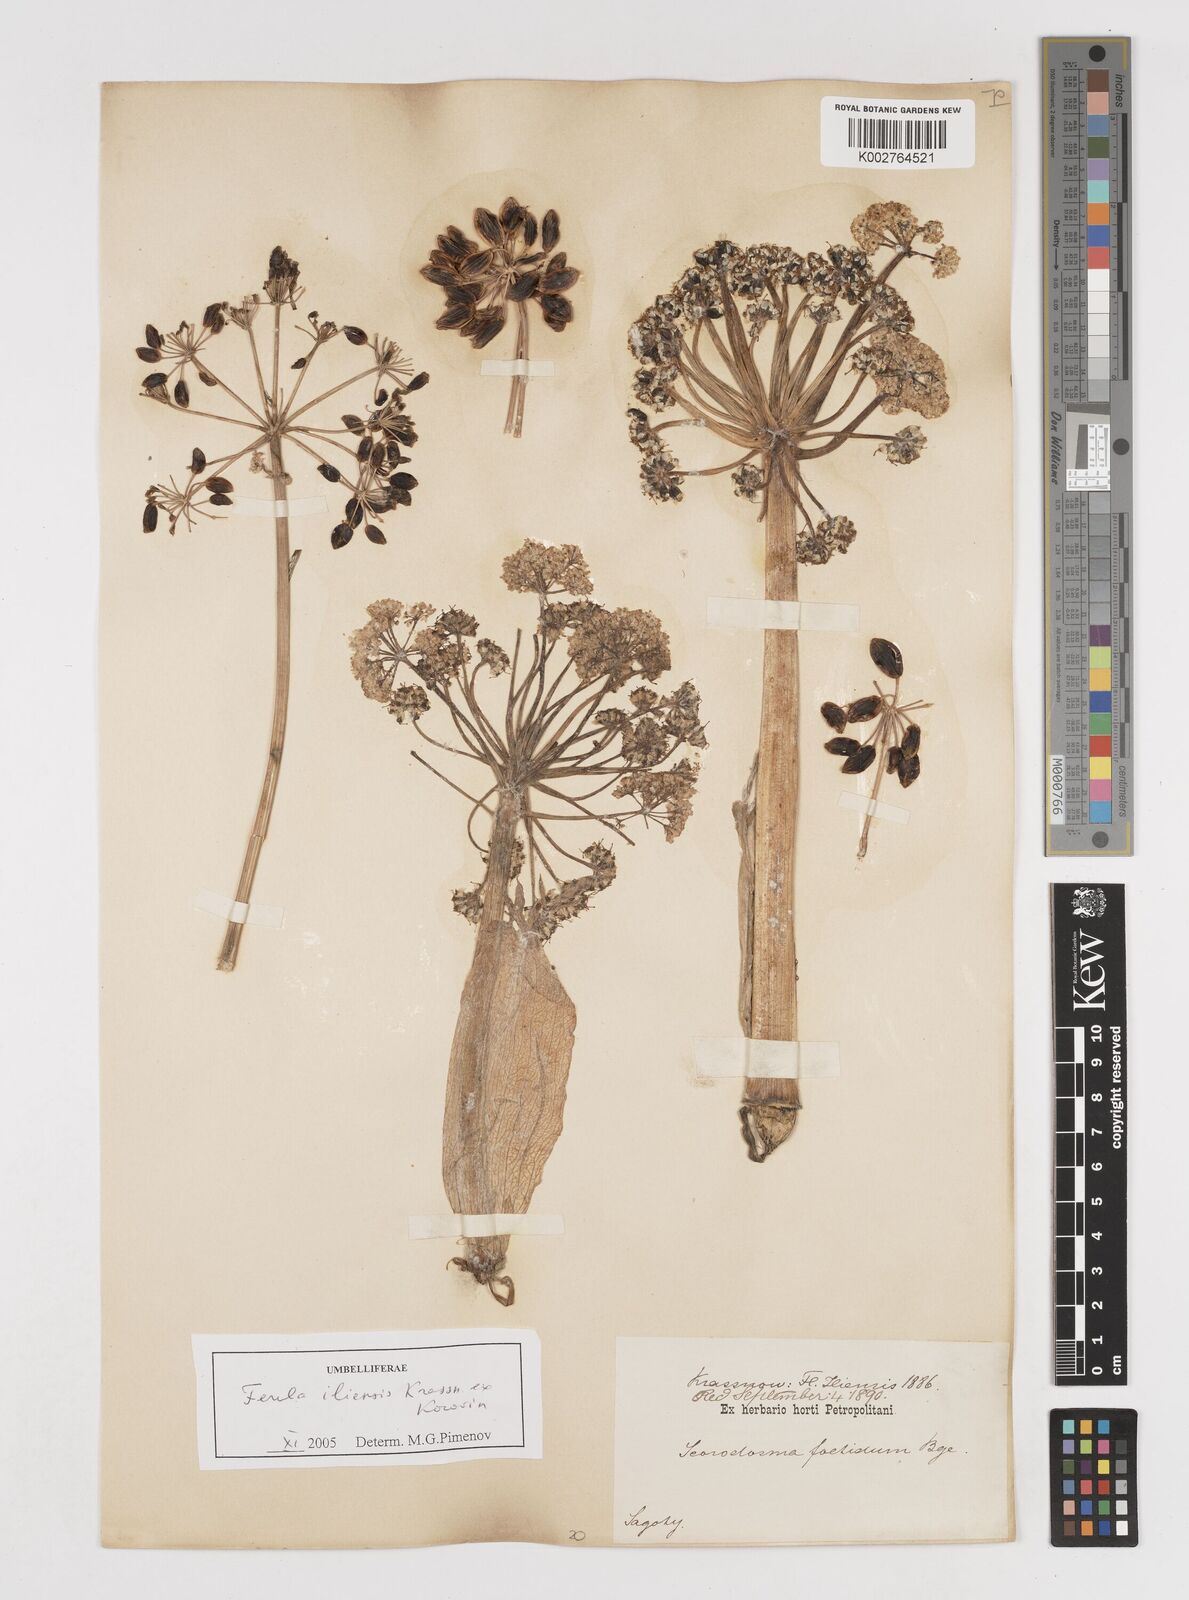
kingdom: Plantae
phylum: Tracheophyta
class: Magnoliopsida
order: Apiales
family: Apiaceae
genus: Ferula
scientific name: Ferula iliensis
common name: Ilan
